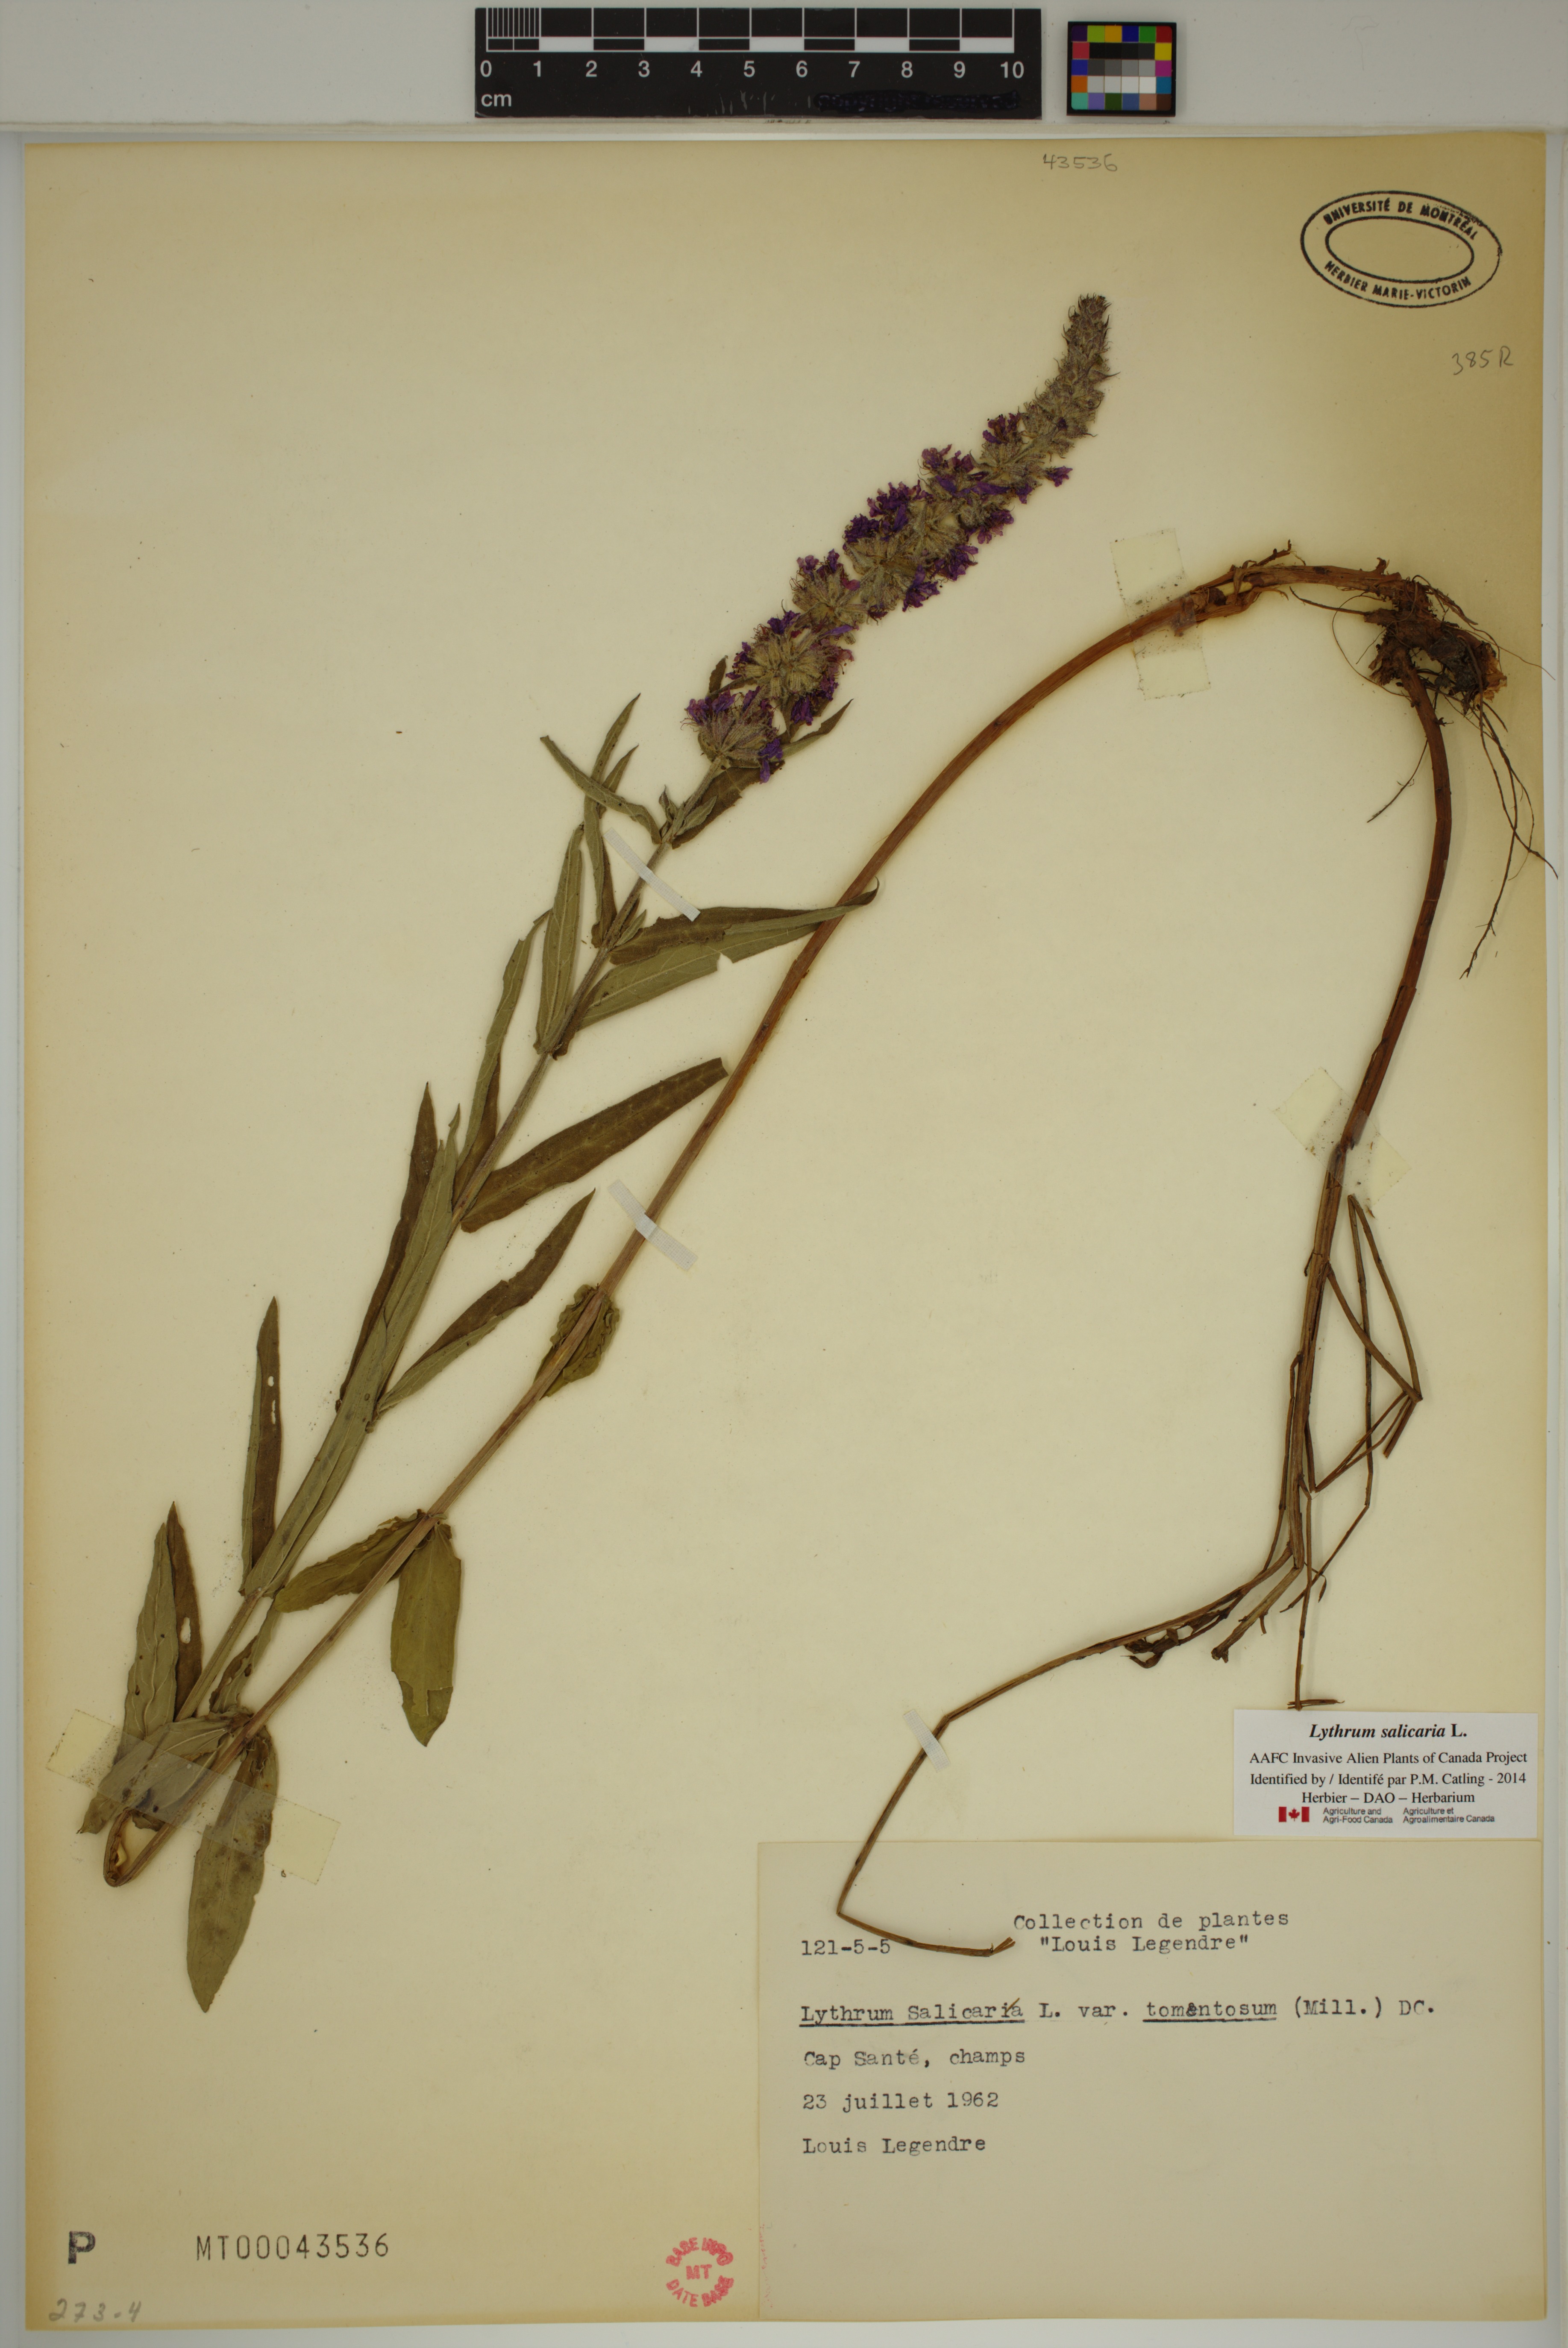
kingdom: Plantae
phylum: Tracheophyta
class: Magnoliopsida
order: Myrtales
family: Lythraceae
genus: Lythrum
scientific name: Lythrum salicaria
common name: Purple loosestrife
